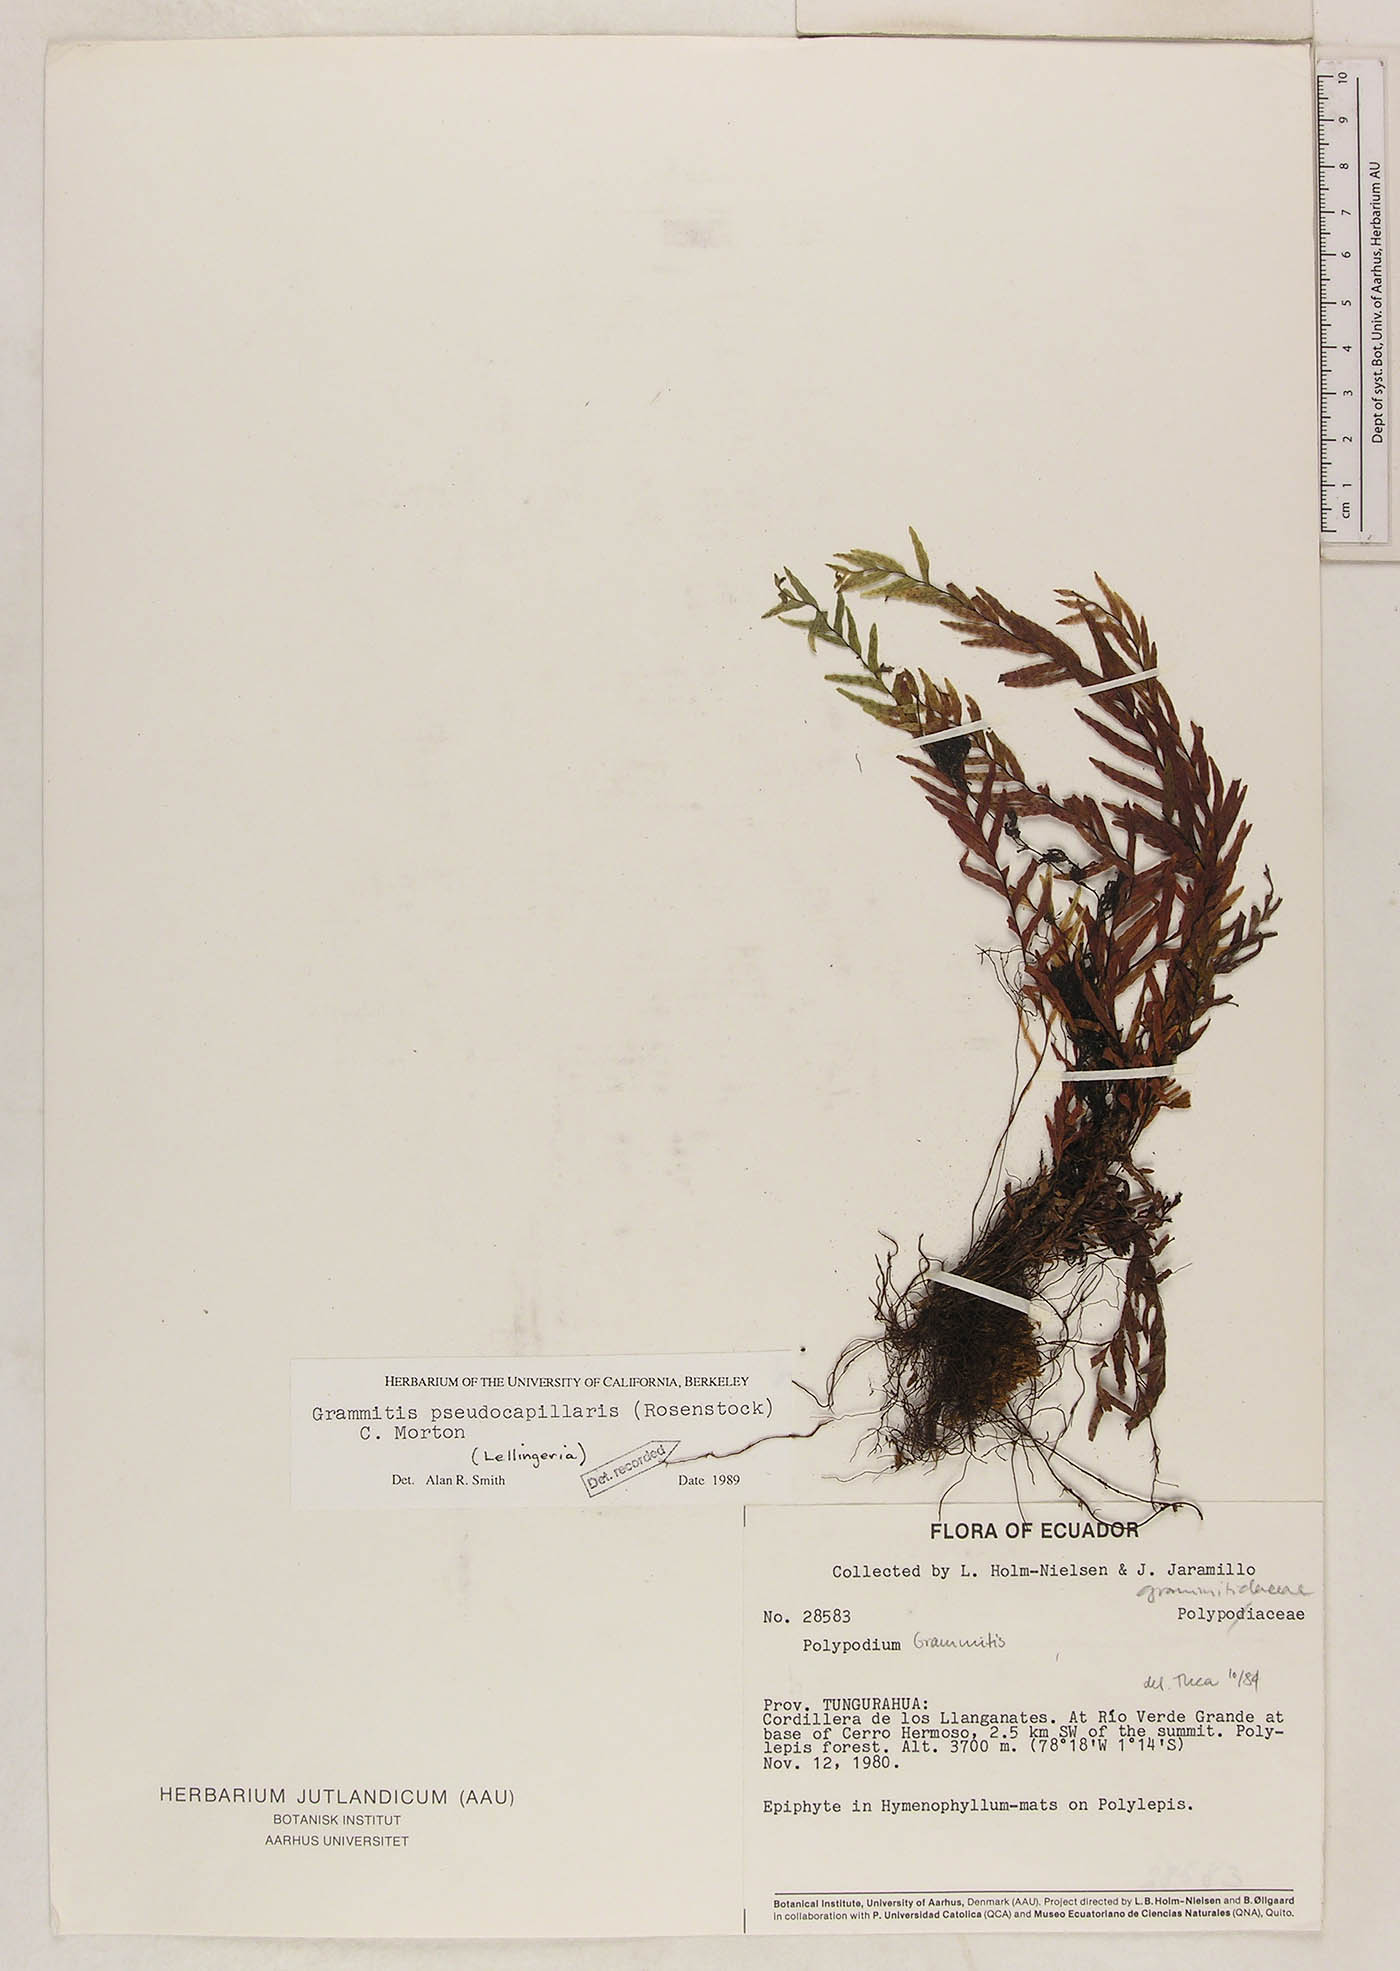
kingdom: Plantae
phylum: Tracheophyta
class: Polypodiopsida
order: Polypodiales
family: Polypodiaceae
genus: Lellingeria
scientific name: Lellingeria pseudocapillaris
